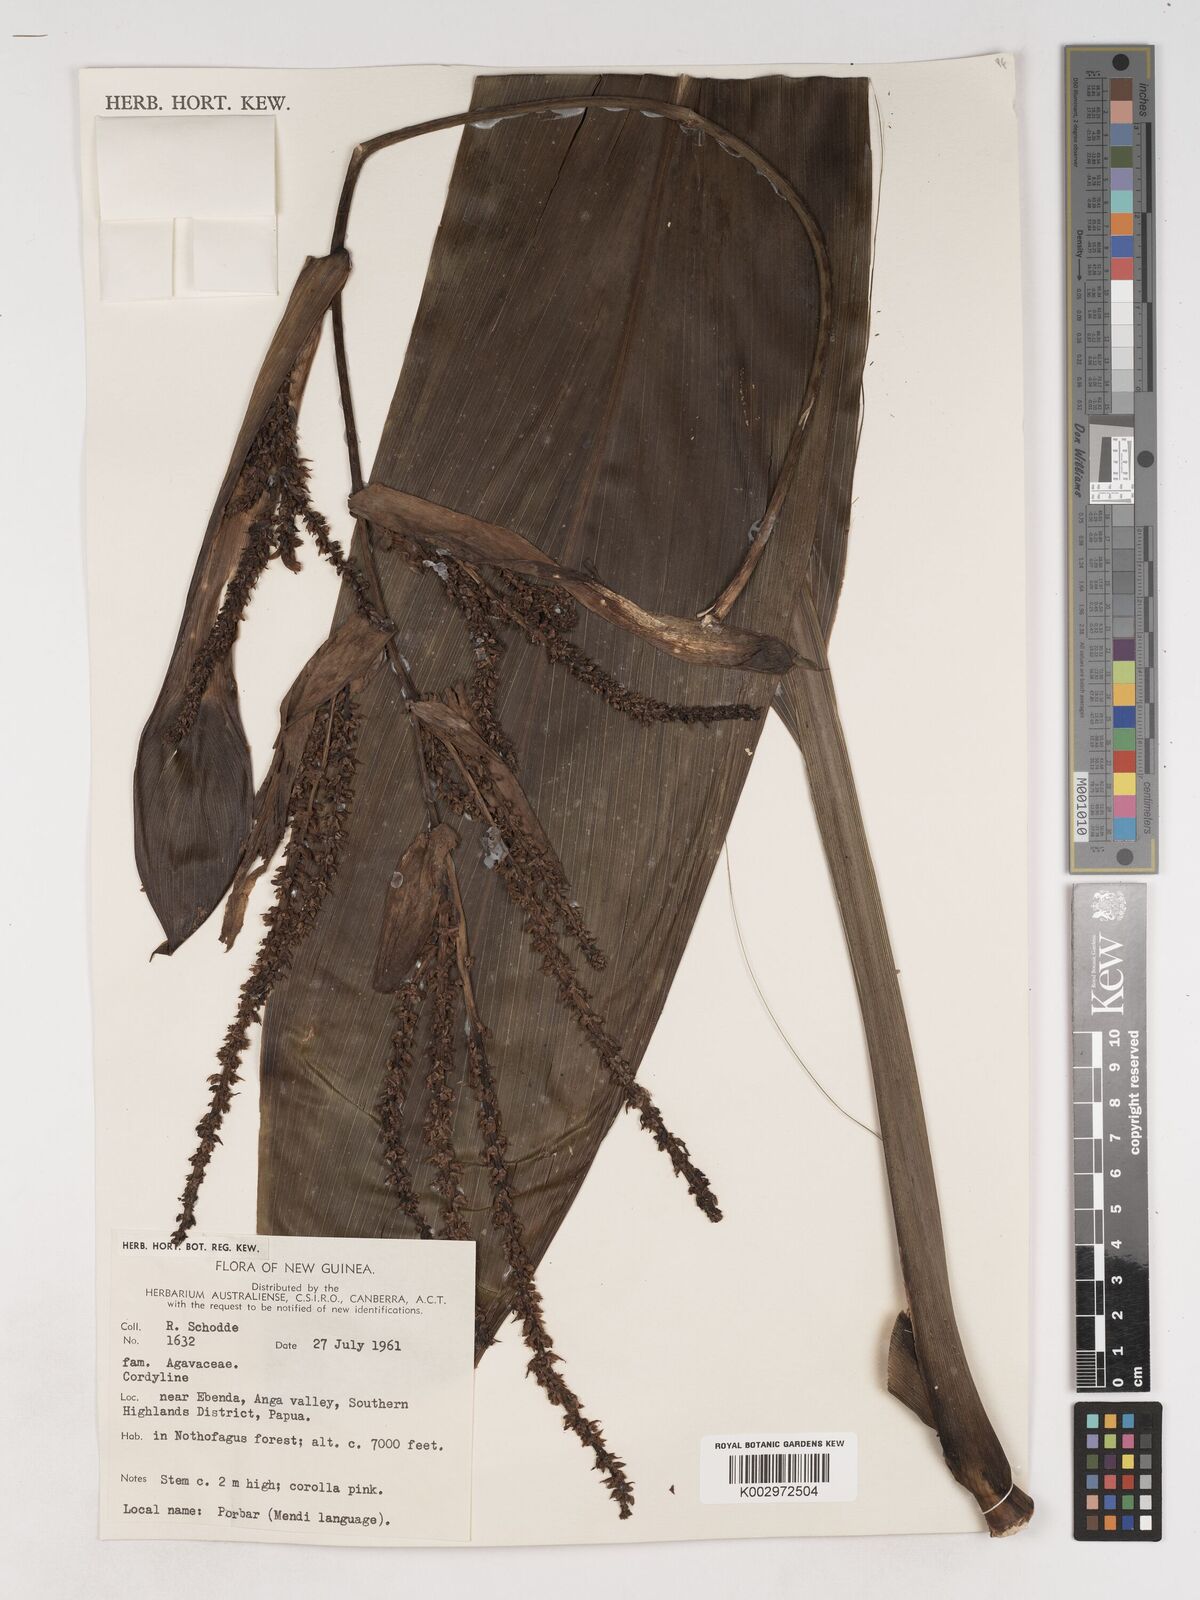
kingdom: Plantae
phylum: Tracheophyta
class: Liliopsida
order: Asparagales
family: Asparagaceae
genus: Cordyline
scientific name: Cordyline
